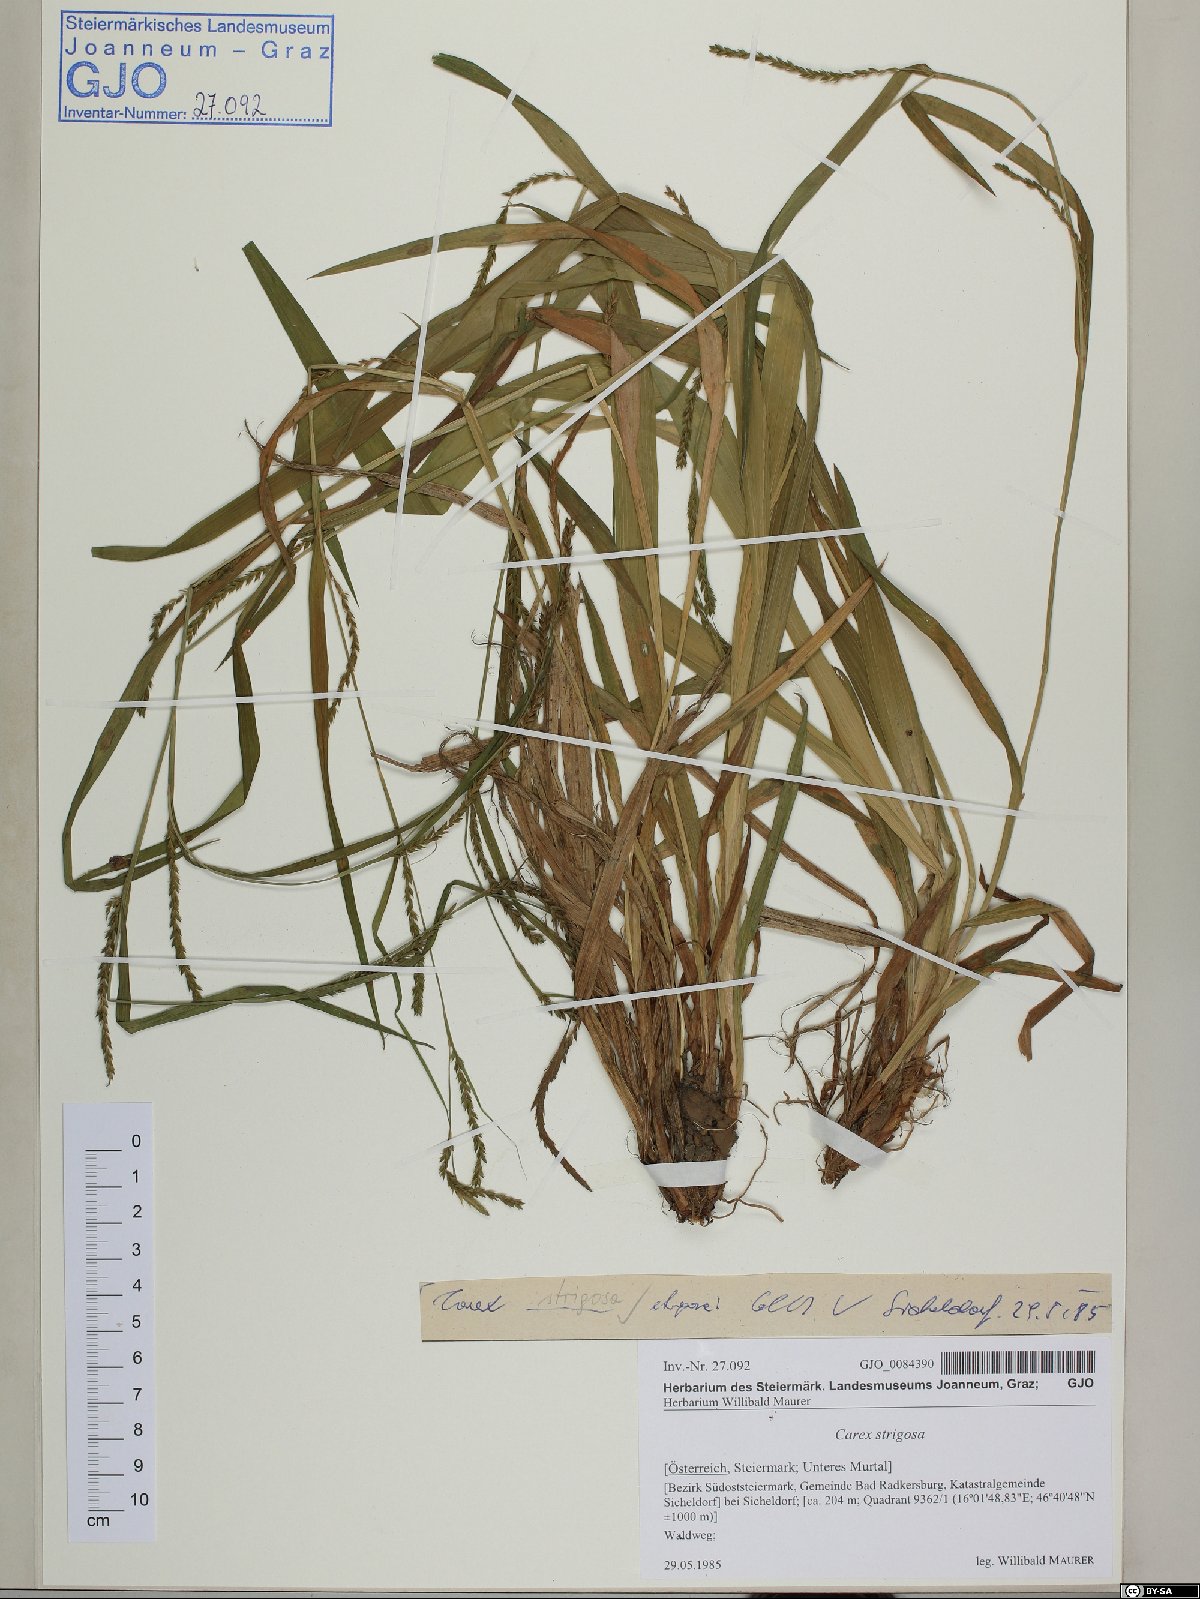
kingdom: Plantae
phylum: Tracheophyta
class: Liliopsida
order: Poales
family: Cyperaceae
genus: Carex
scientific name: Carex strigosa
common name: Thin-spiked wood-sedge
